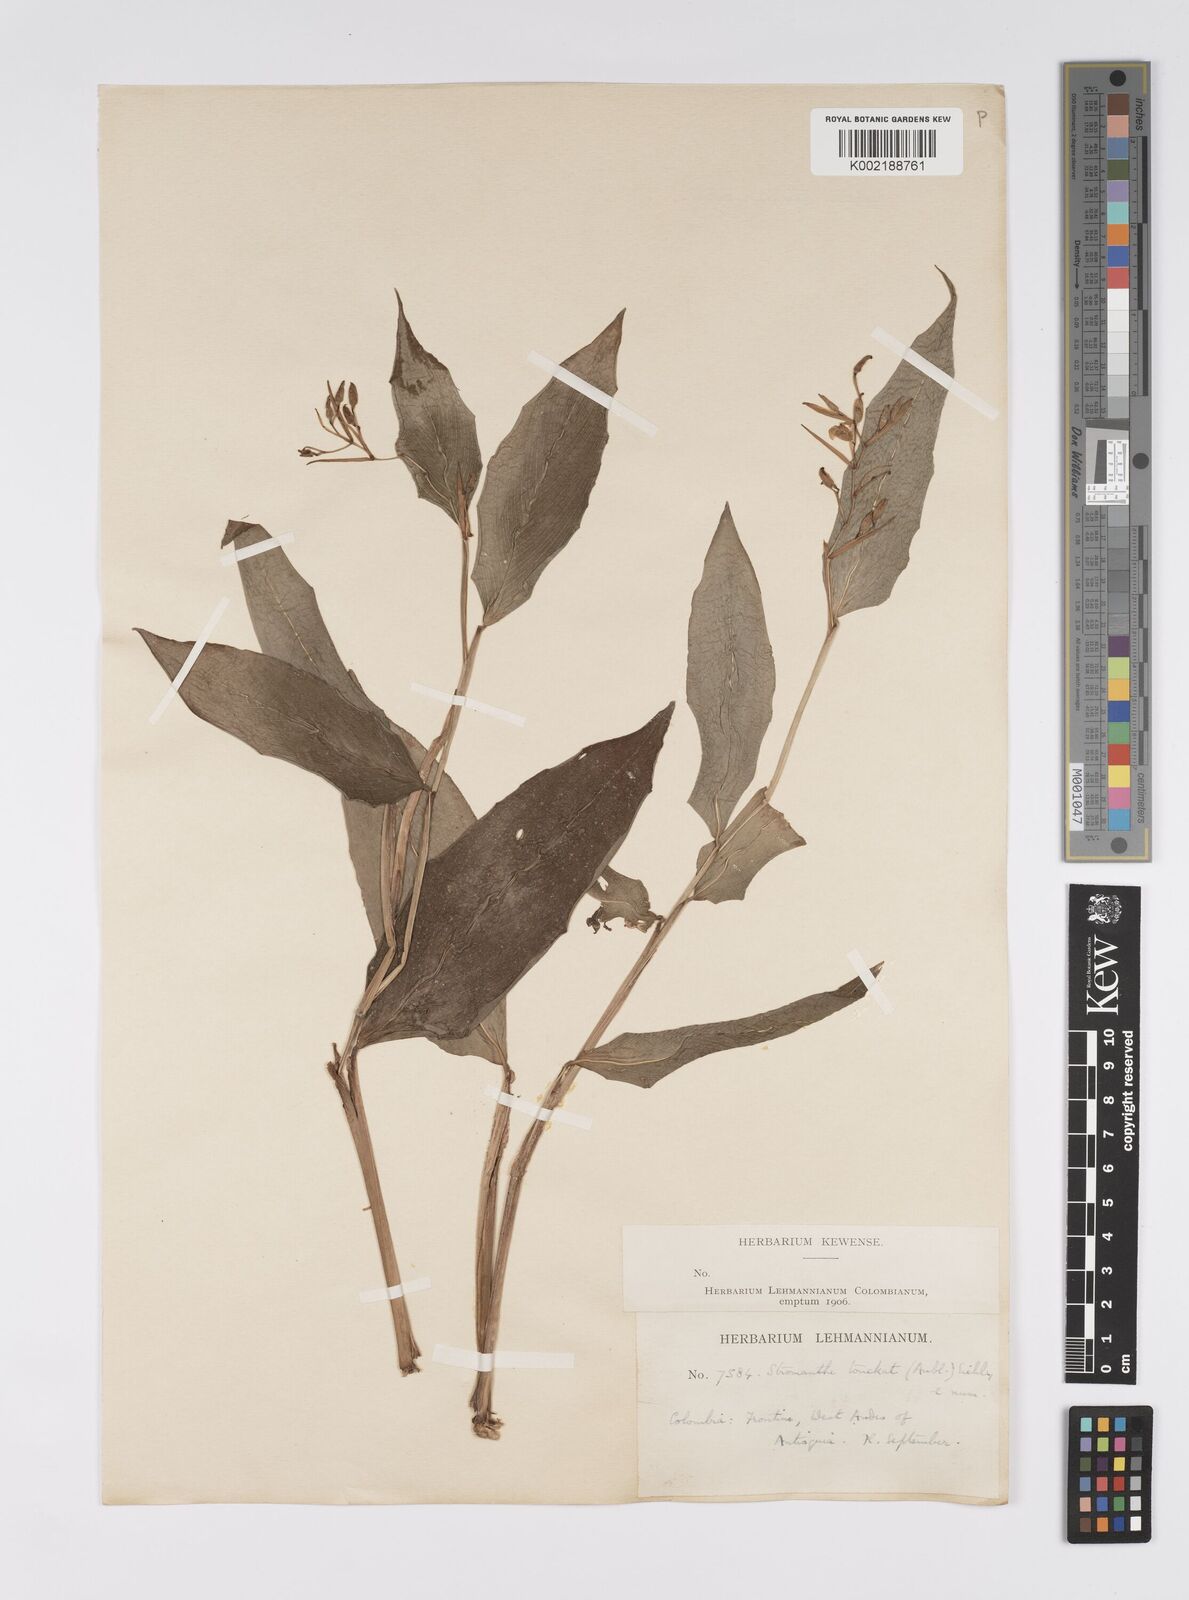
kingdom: Plantae
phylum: Tracheophyta
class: Liliopsida
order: Zingiberales
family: Marantaceae
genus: Stromanthe
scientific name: Stromanthe tonckat
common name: Stromanthe
